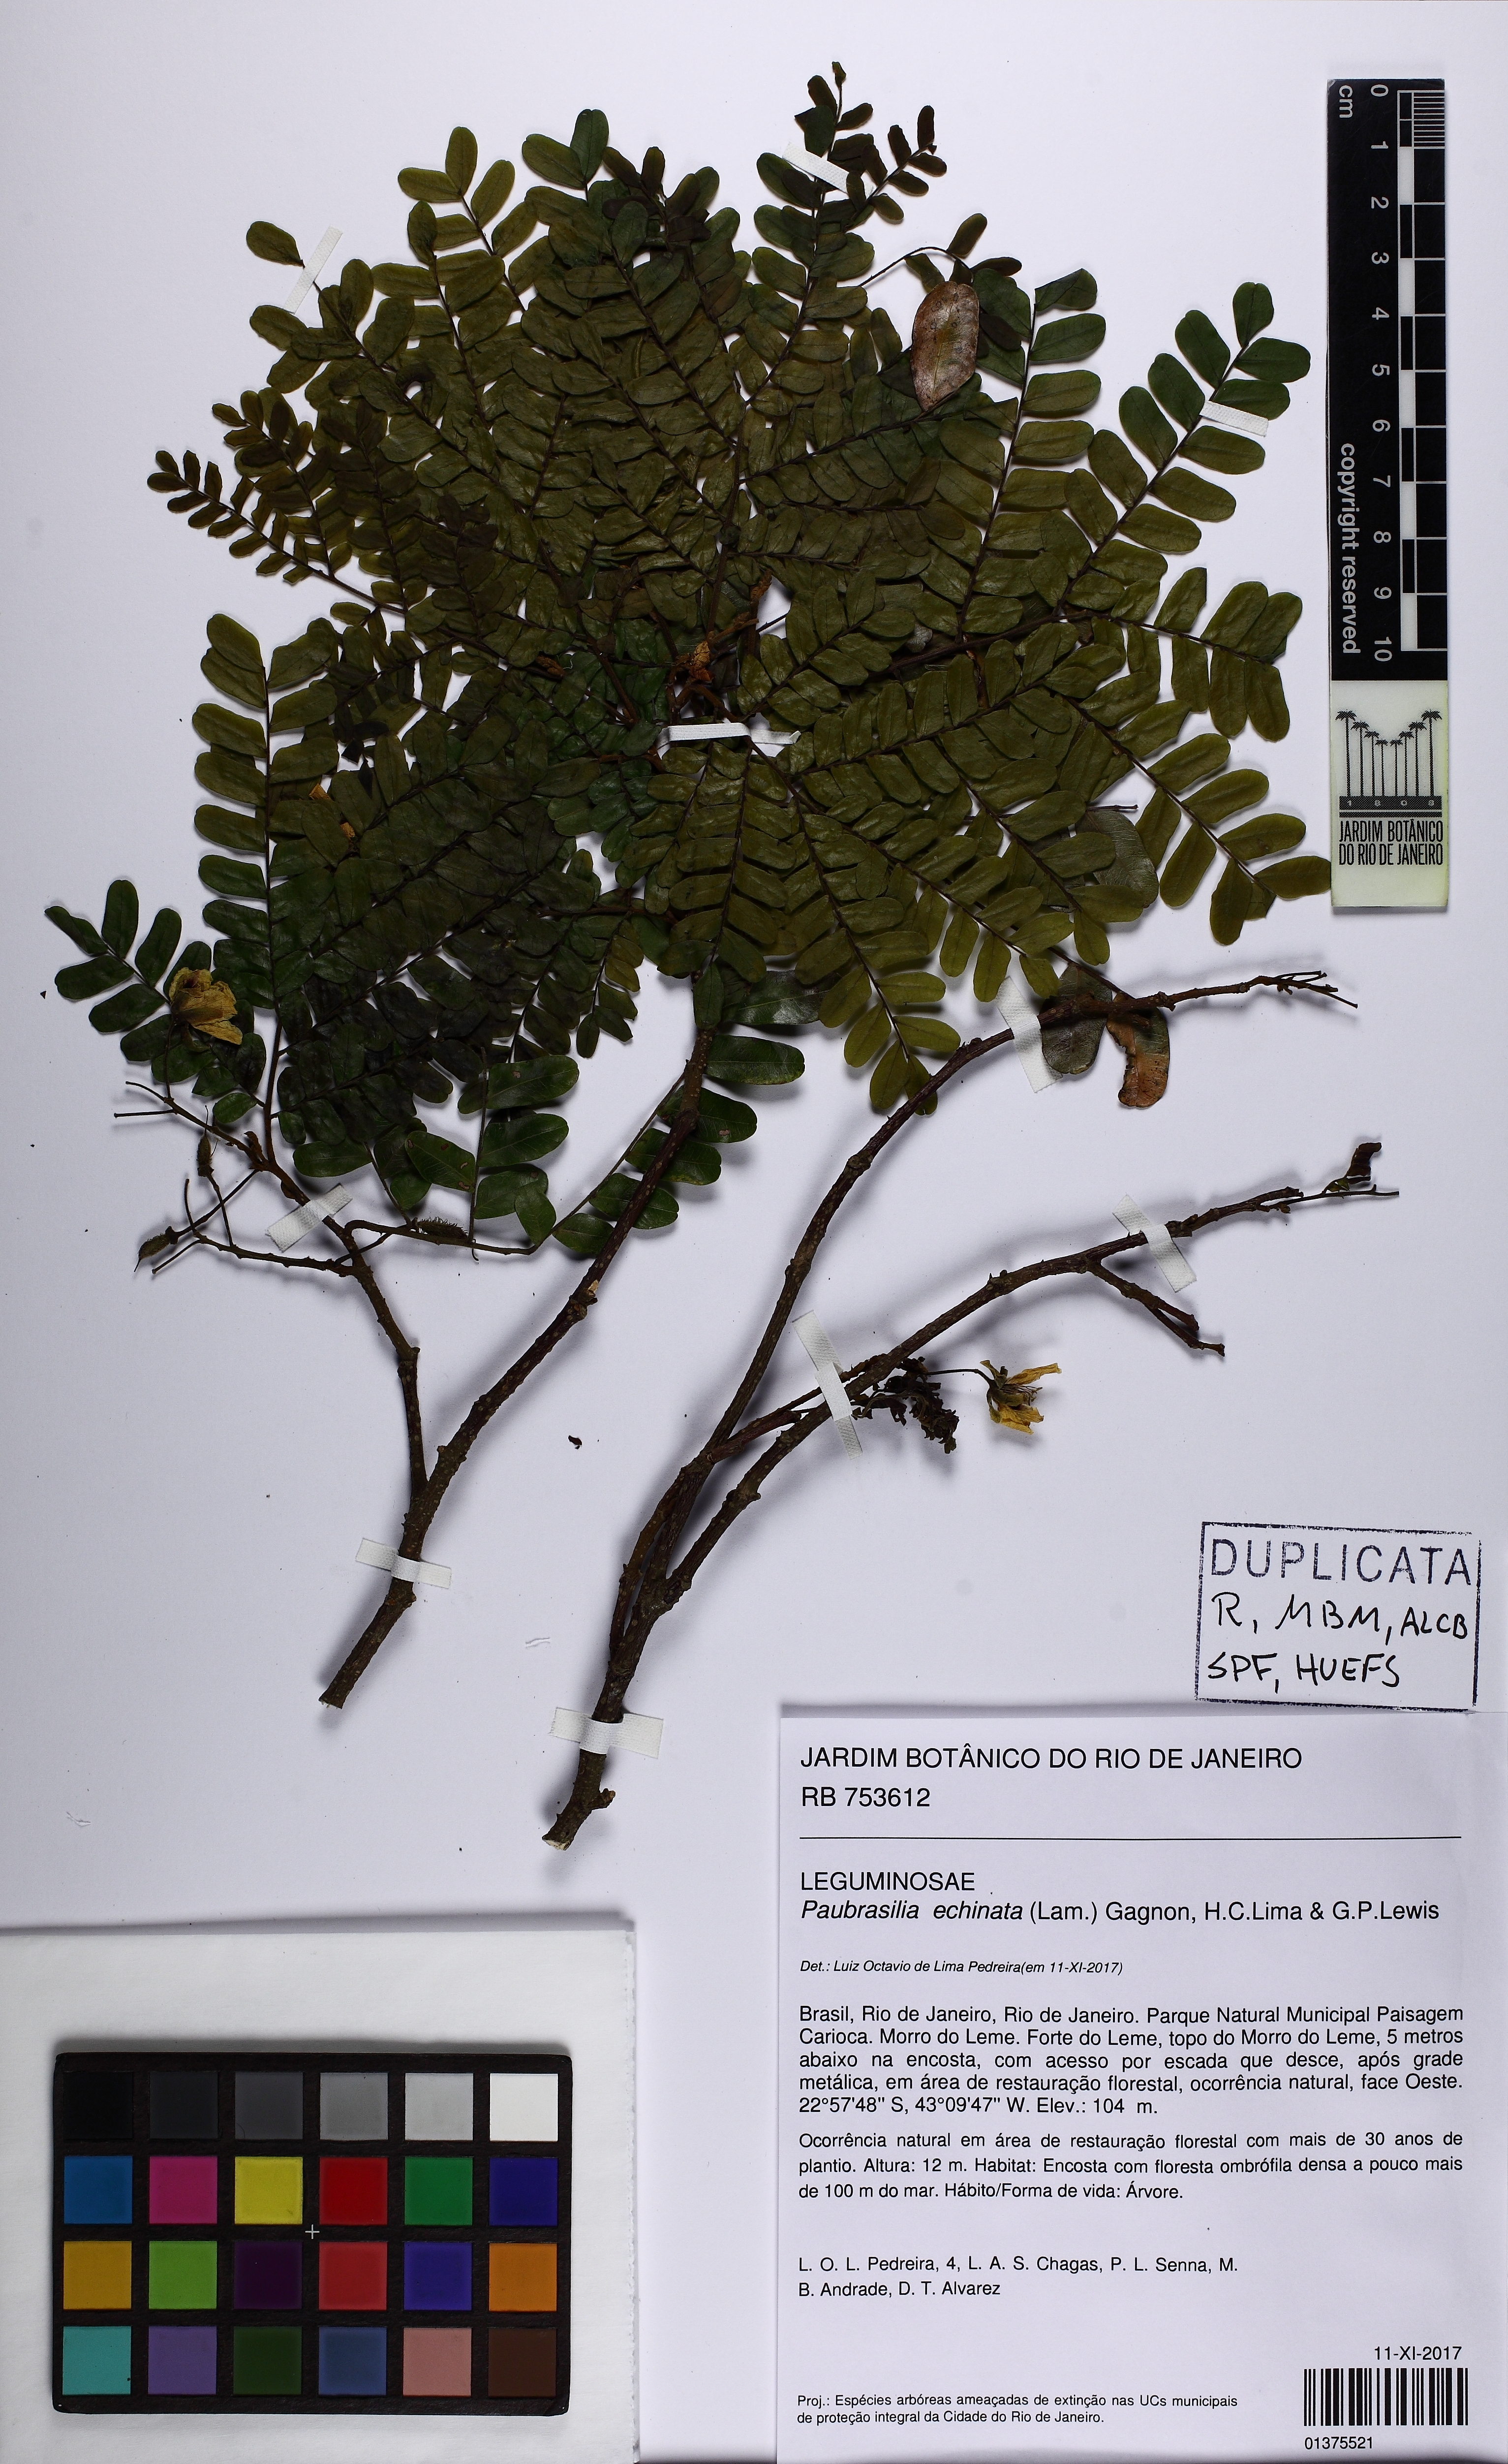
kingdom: Plantae
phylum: Tracheophyta
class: Magnoliopsida
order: Fabales
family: Fabaceae
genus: Paubrasilia
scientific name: Paubrasilia echinata
